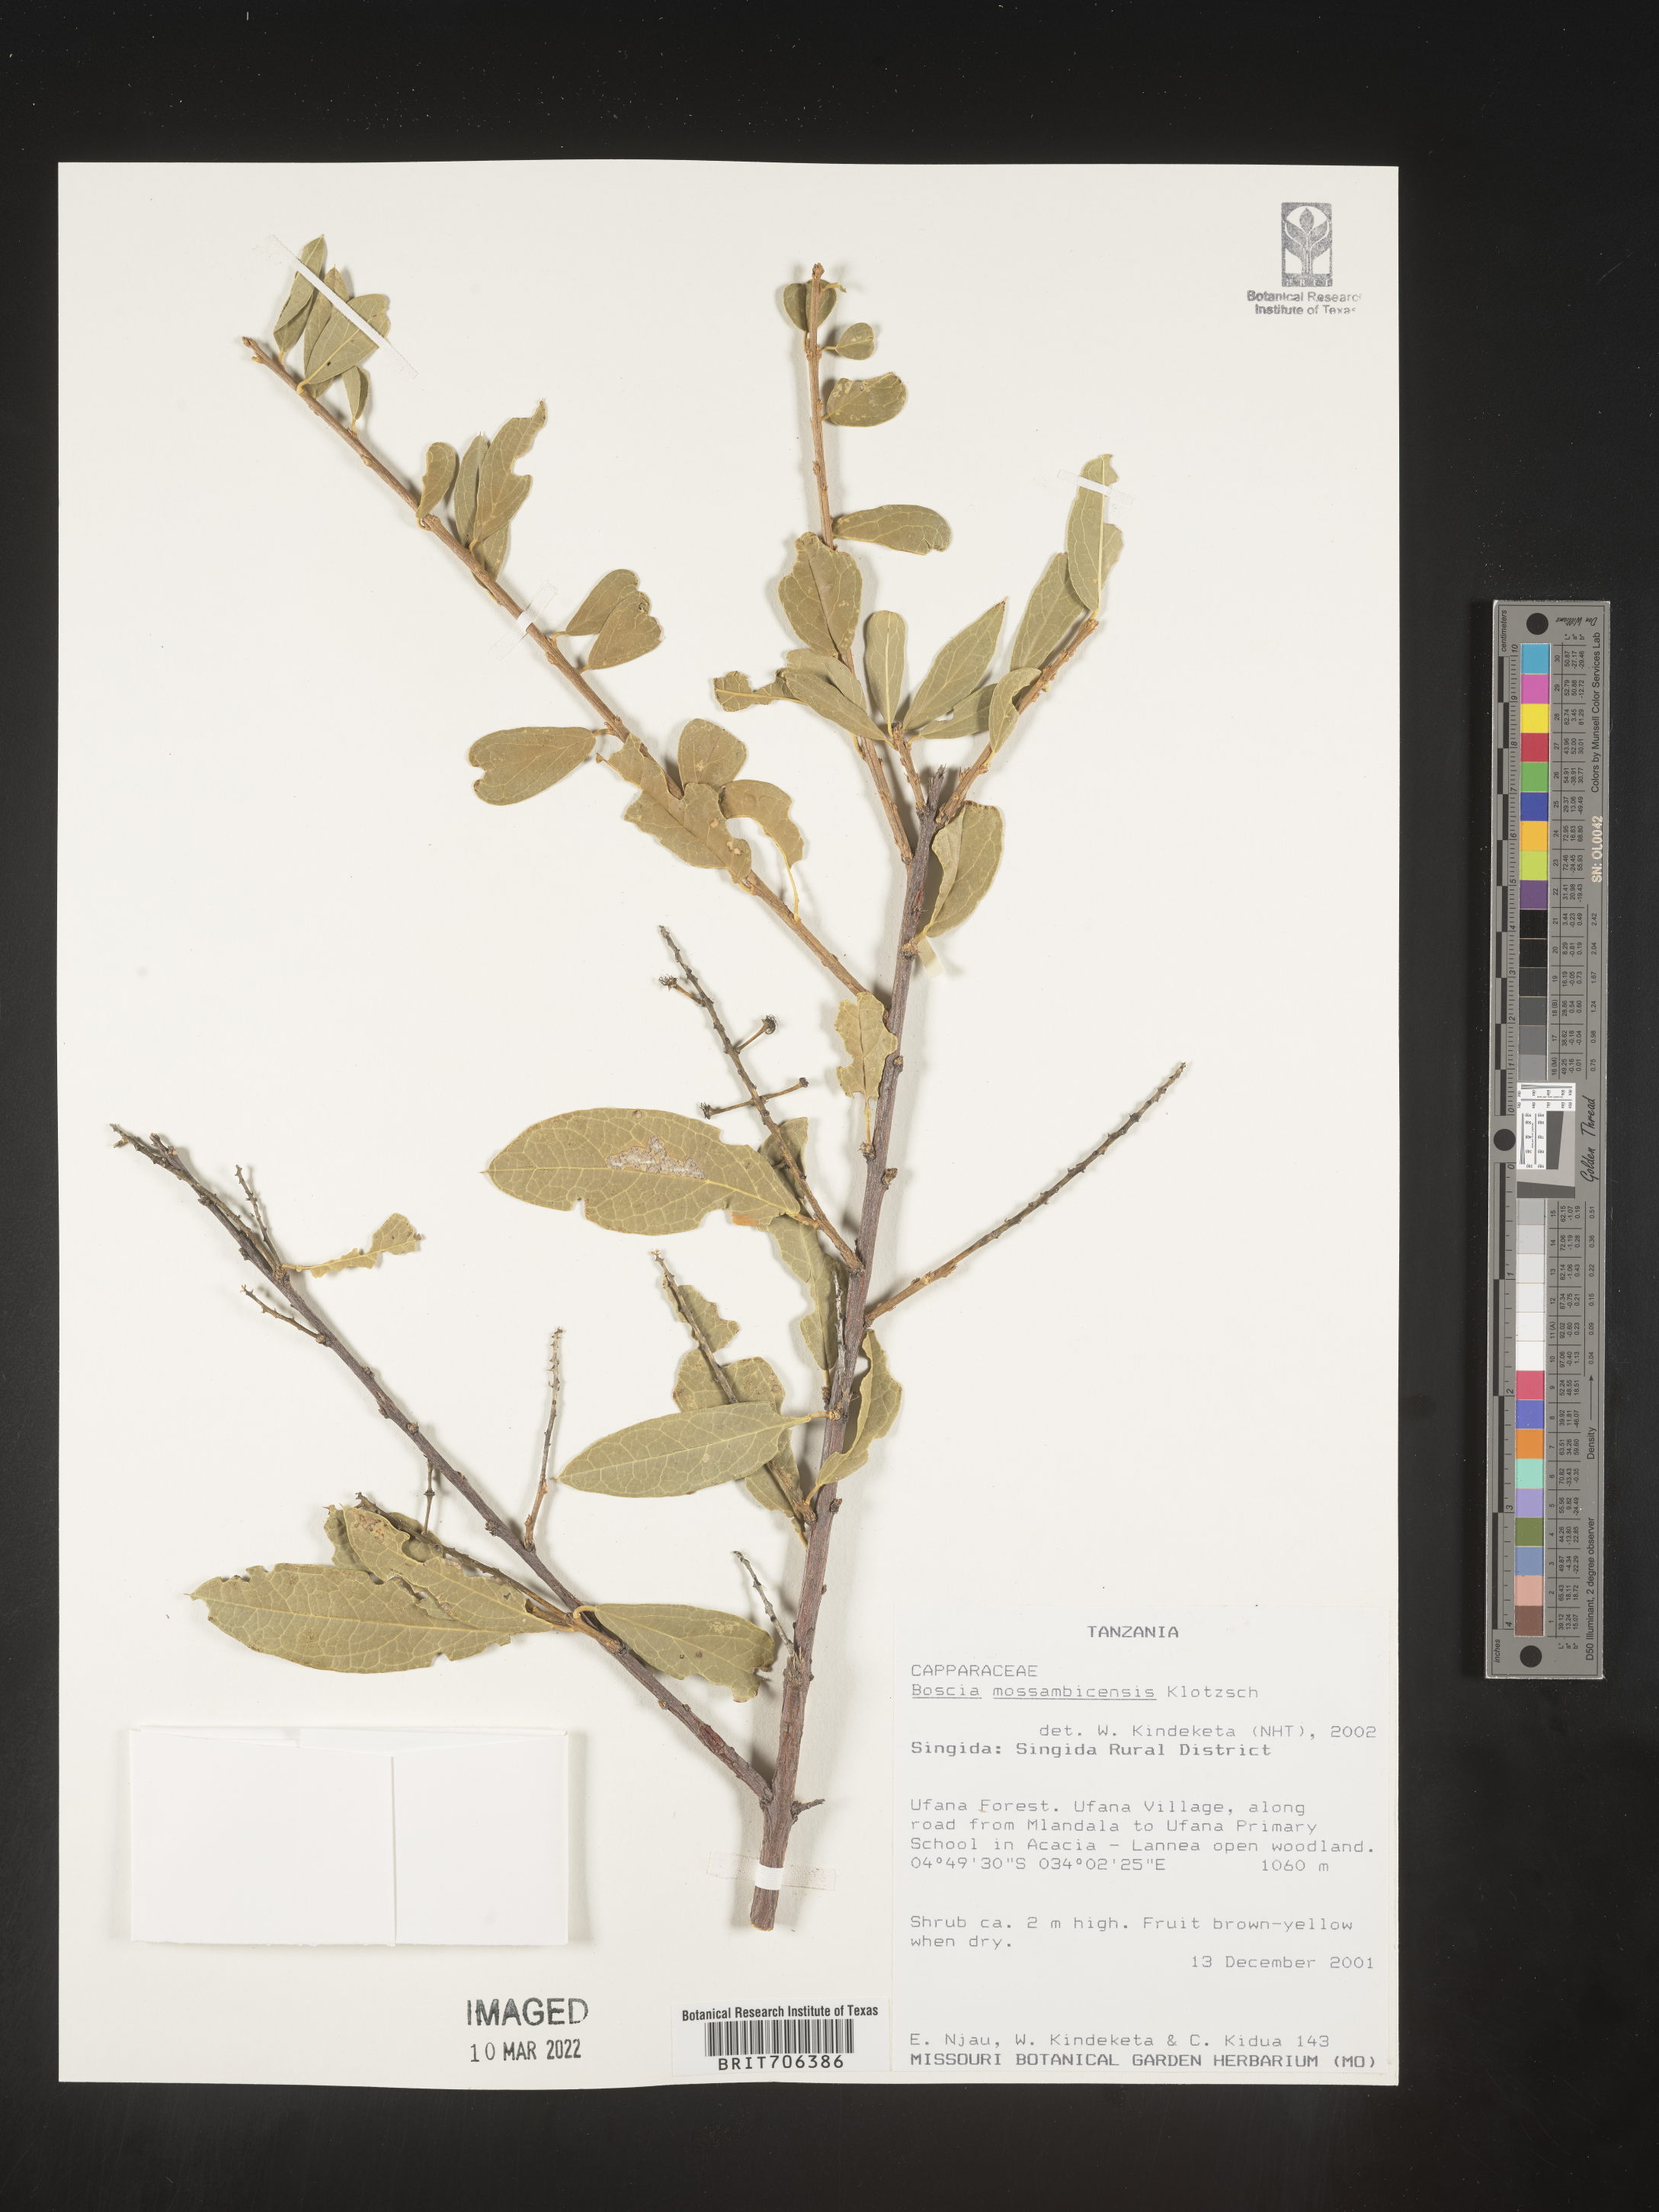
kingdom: Plantae
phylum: Tracheophyta
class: Magnoliopsida
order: Brassicales
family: Capparaceae
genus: Boscia
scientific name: Boscia
